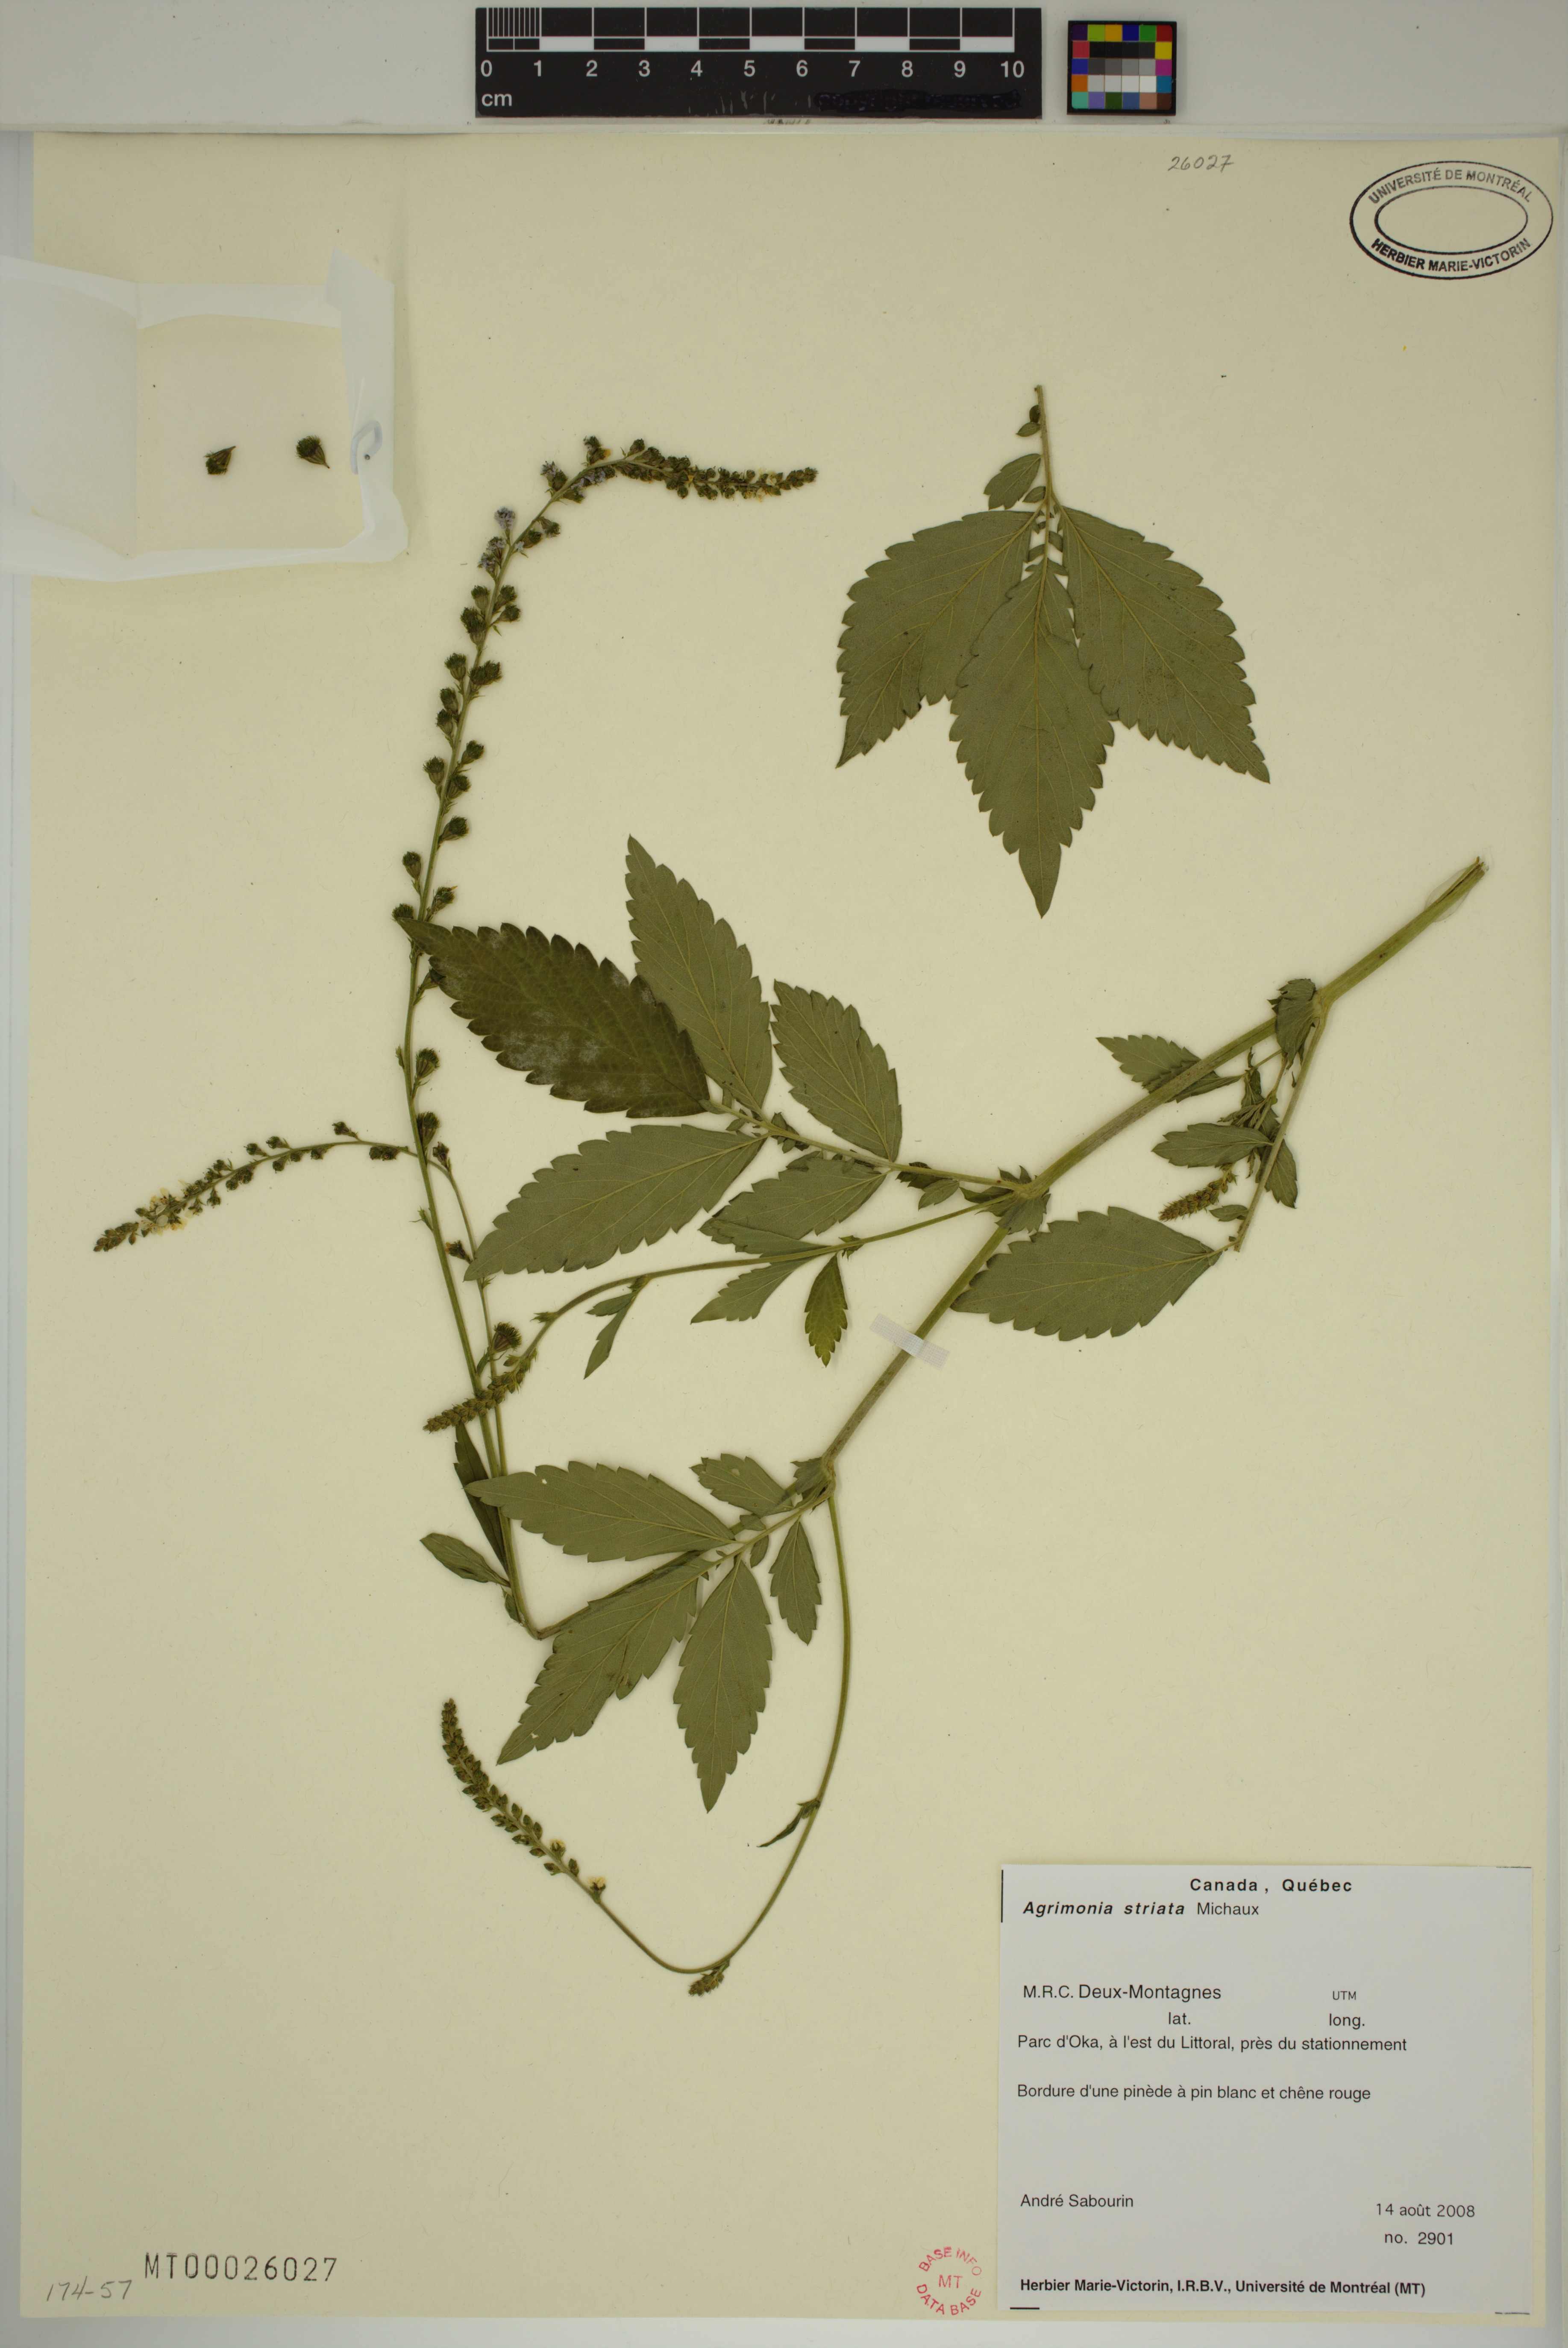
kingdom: Plantae
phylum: Tracheophyta
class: Magnoliopsida
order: Rosales
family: Rosaceae
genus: Agrimonia
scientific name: Agrimonia striata
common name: Britton's agrimony
